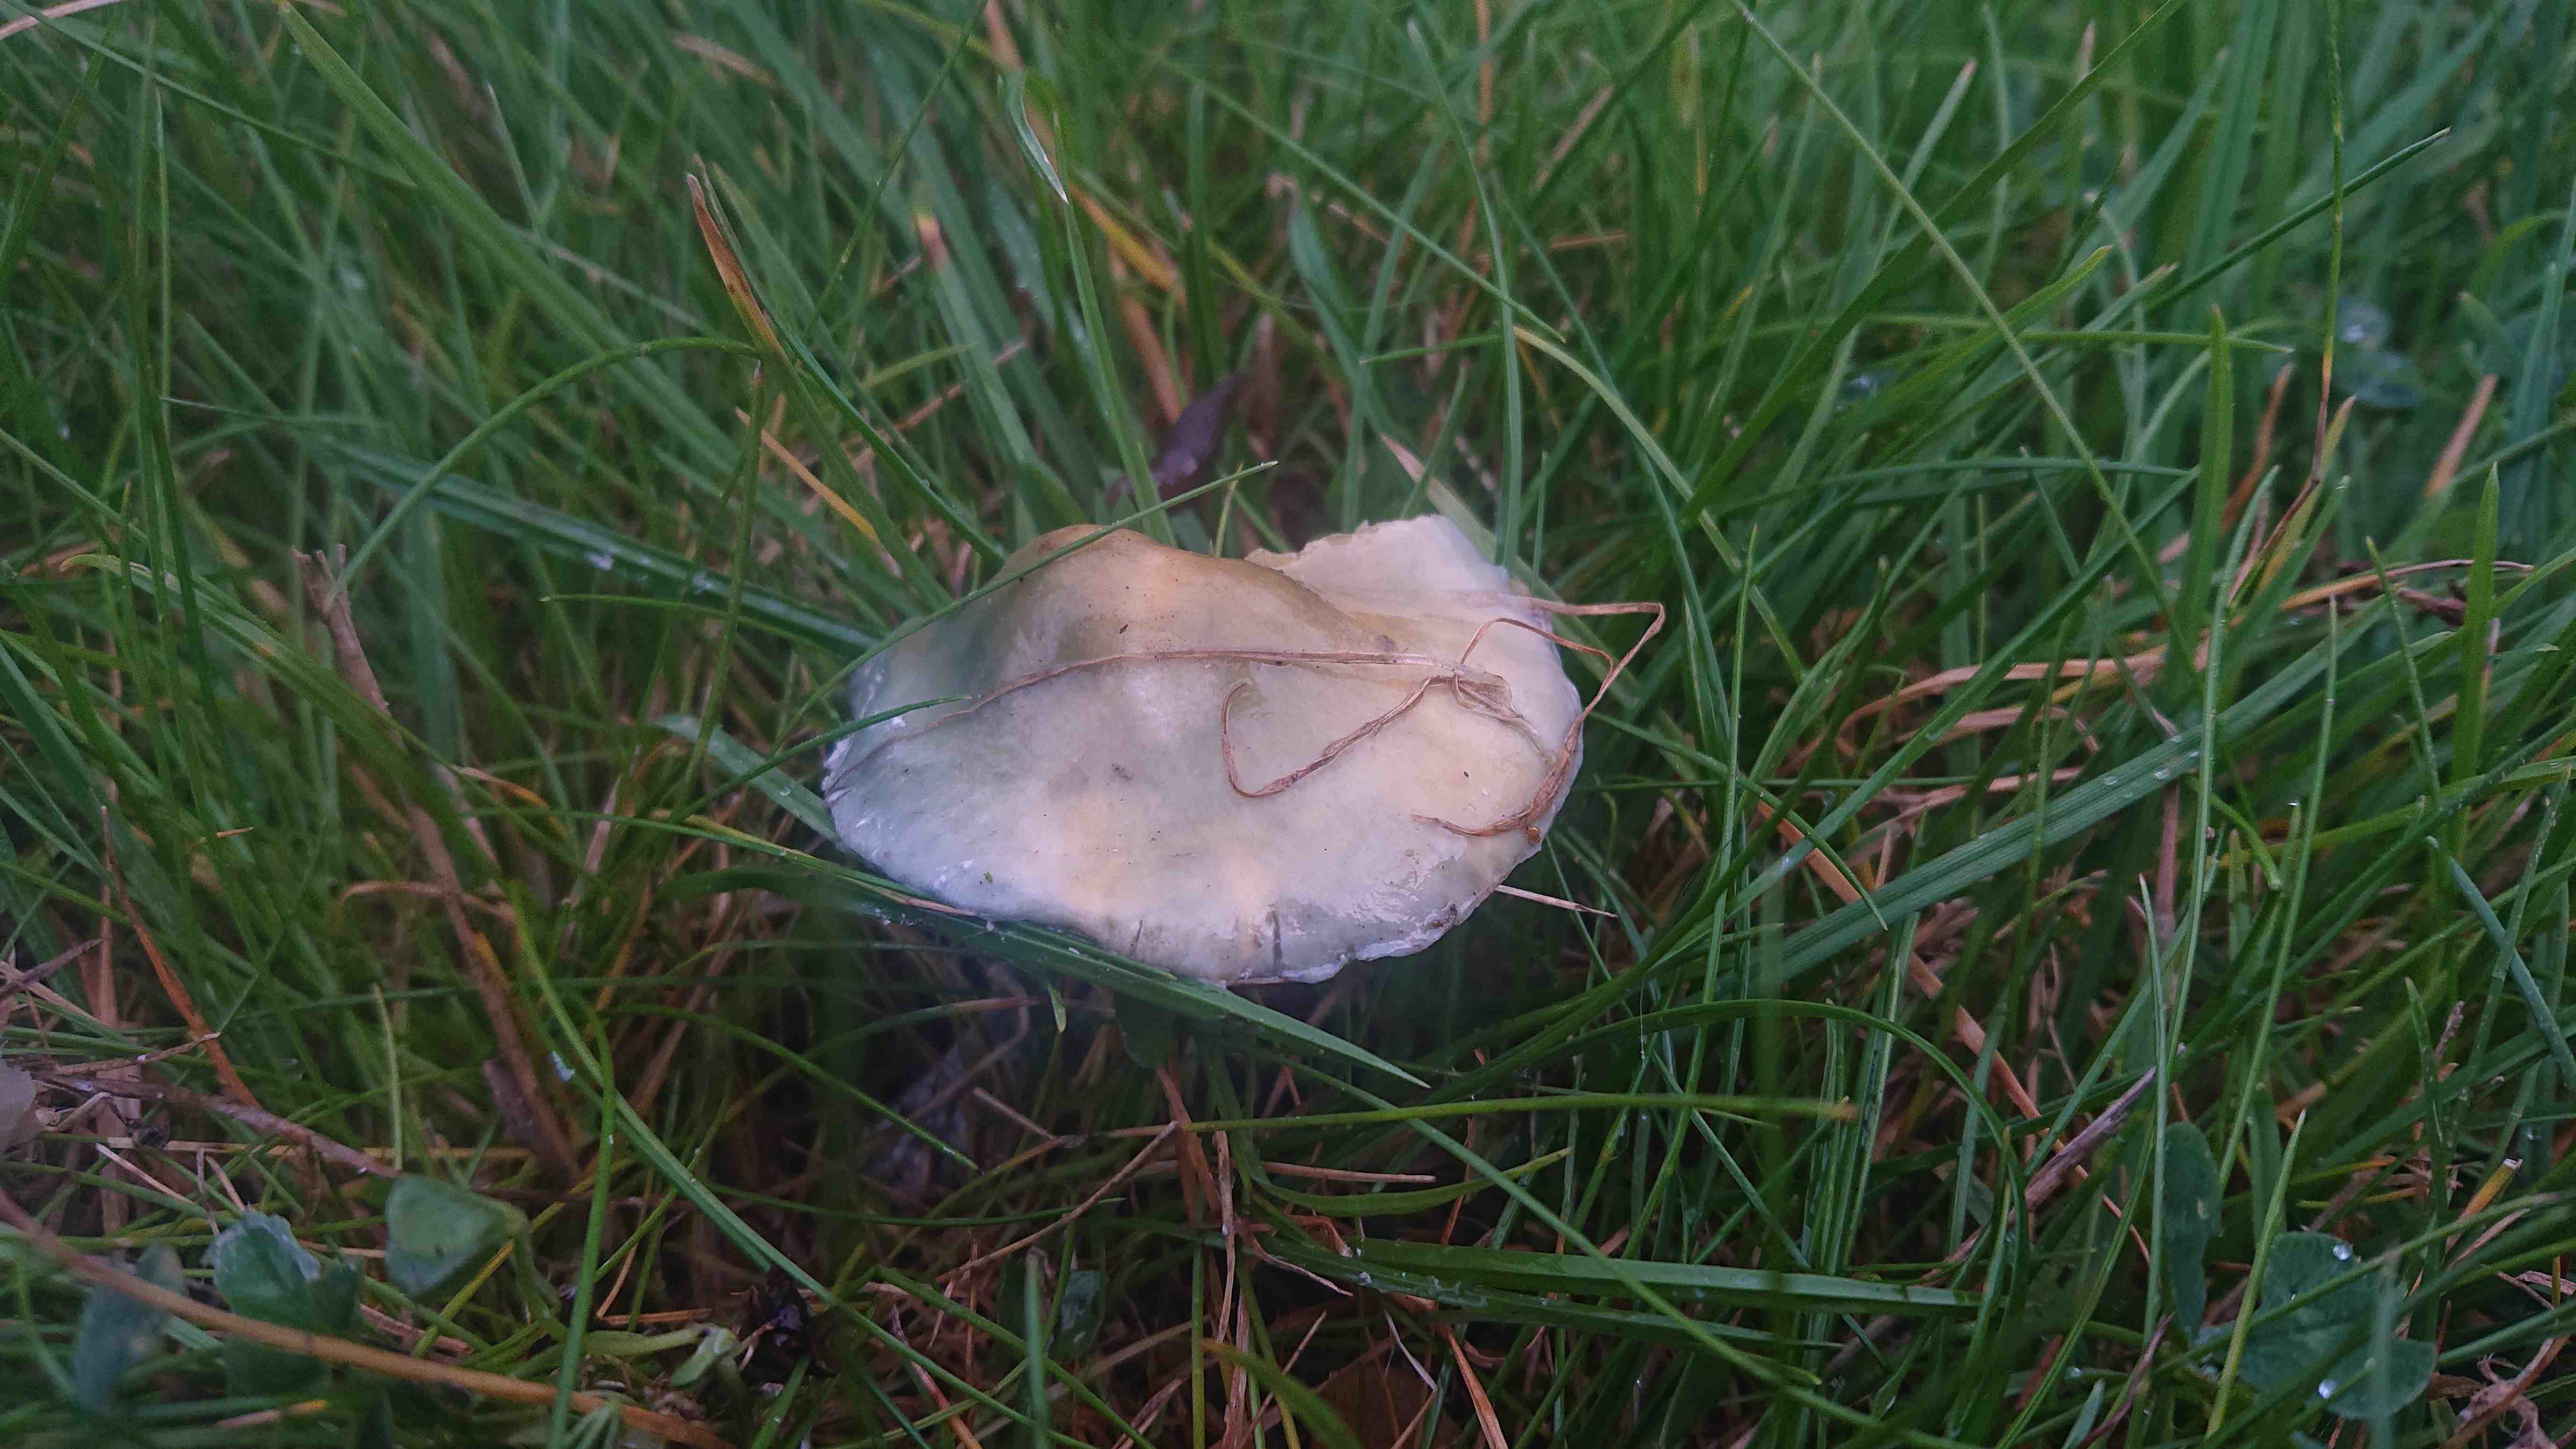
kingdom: Fungi
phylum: Basidiomycota
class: Agaricomycetes
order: Agaricales
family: Strophariaceae
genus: Stropharia
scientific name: Stropharia cyanea
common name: blågrøn bredblad
